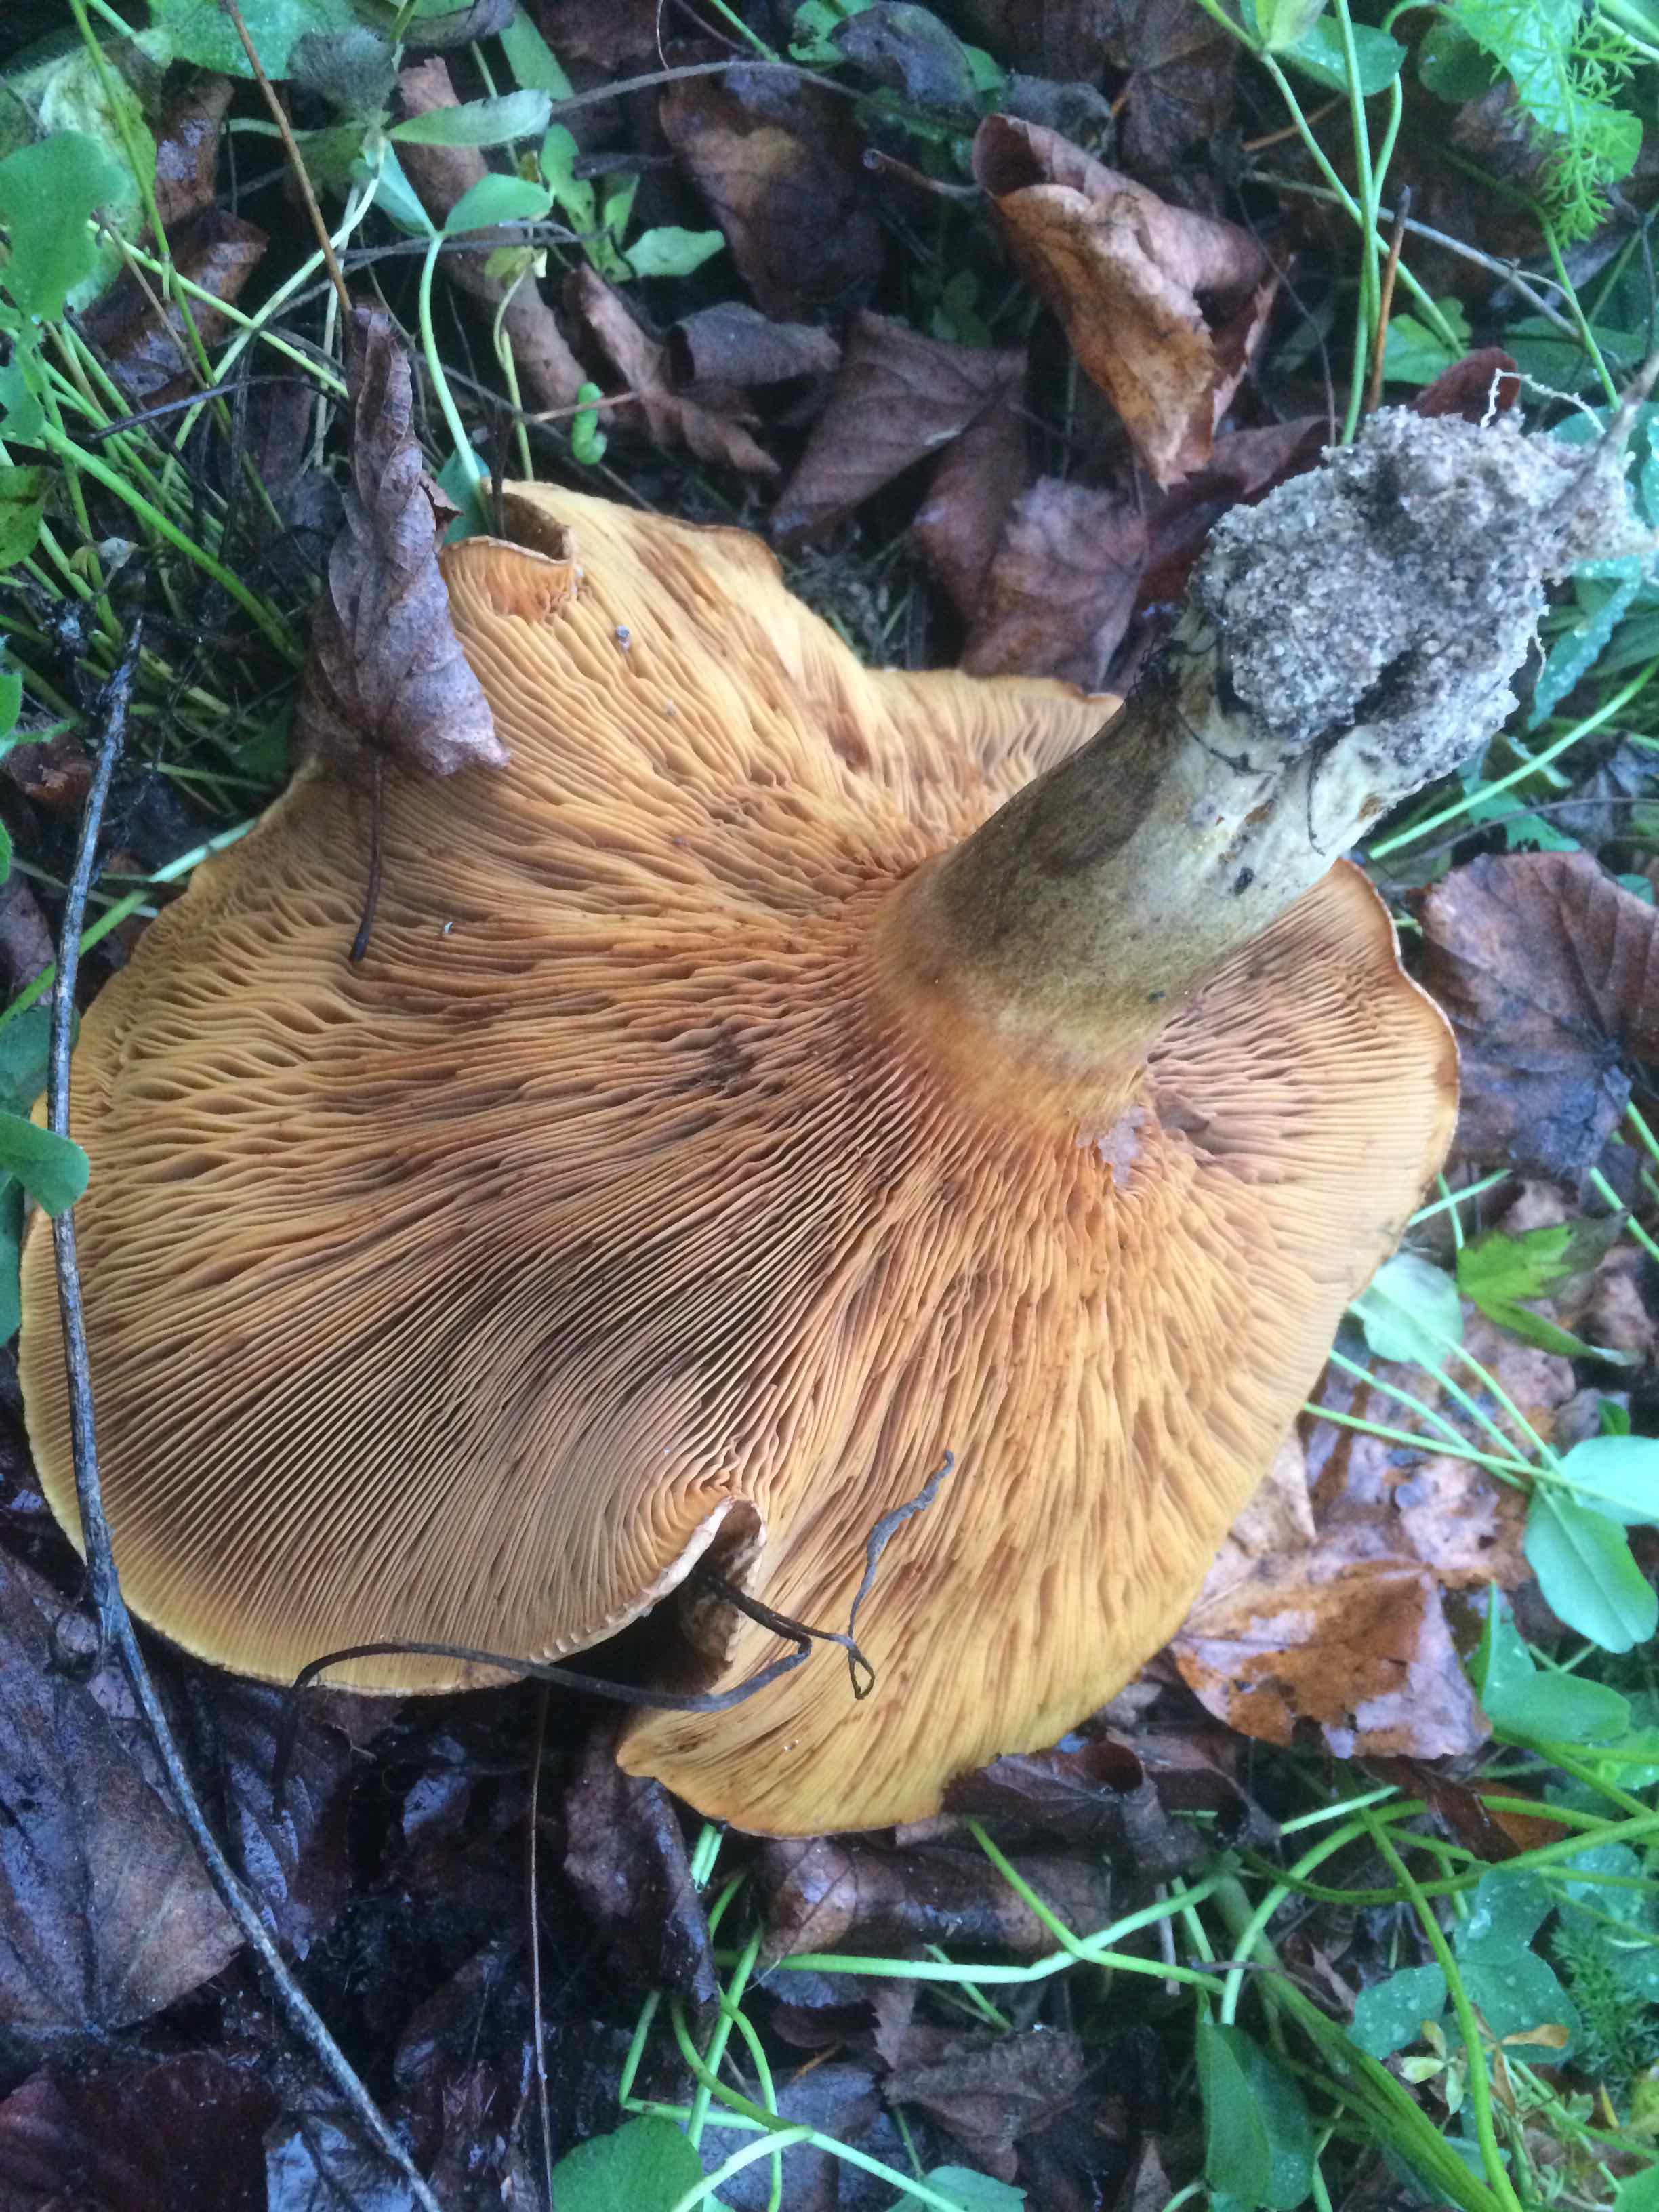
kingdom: Fungi
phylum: Basidiomycota
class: Agaricomycetes
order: Boletales
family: Paxillaceae
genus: Paxillus
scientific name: Paxillus
